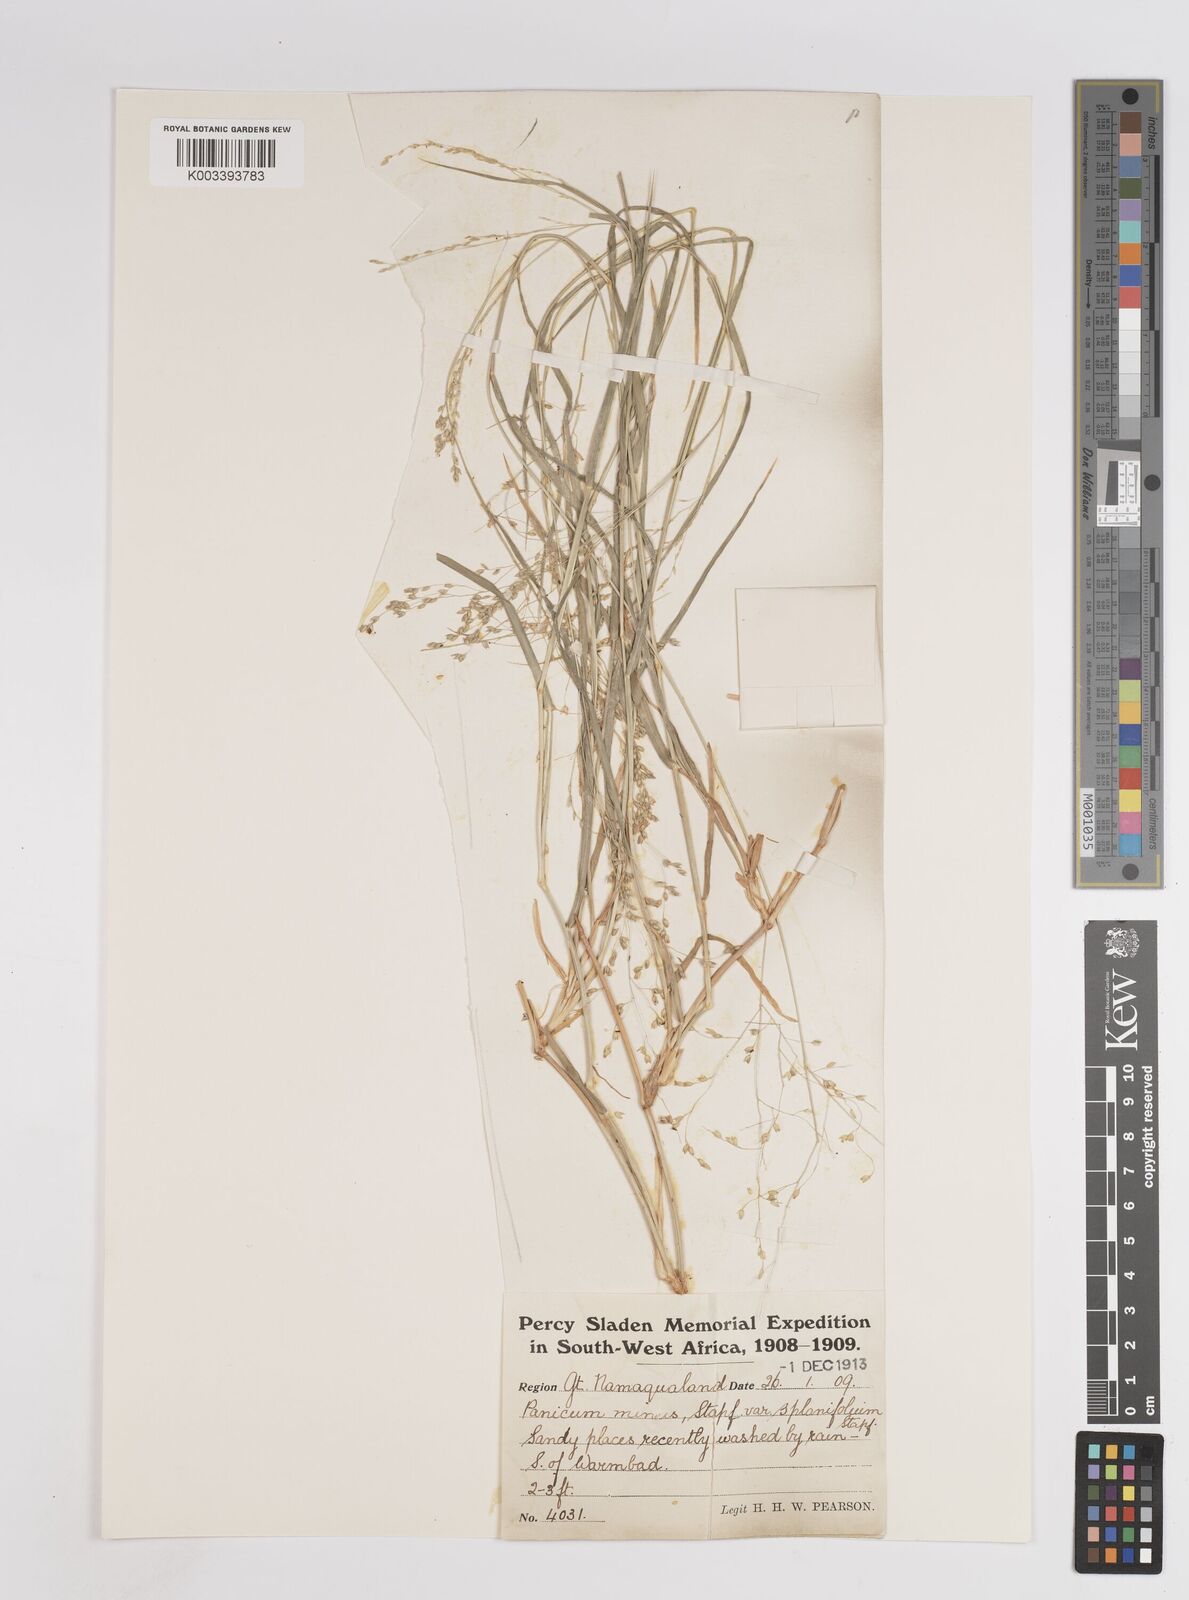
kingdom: Plantae
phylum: Tracheophyta
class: Liliopsida
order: Poales
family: Poaceae
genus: Panicum
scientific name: Panicum arbusculum
